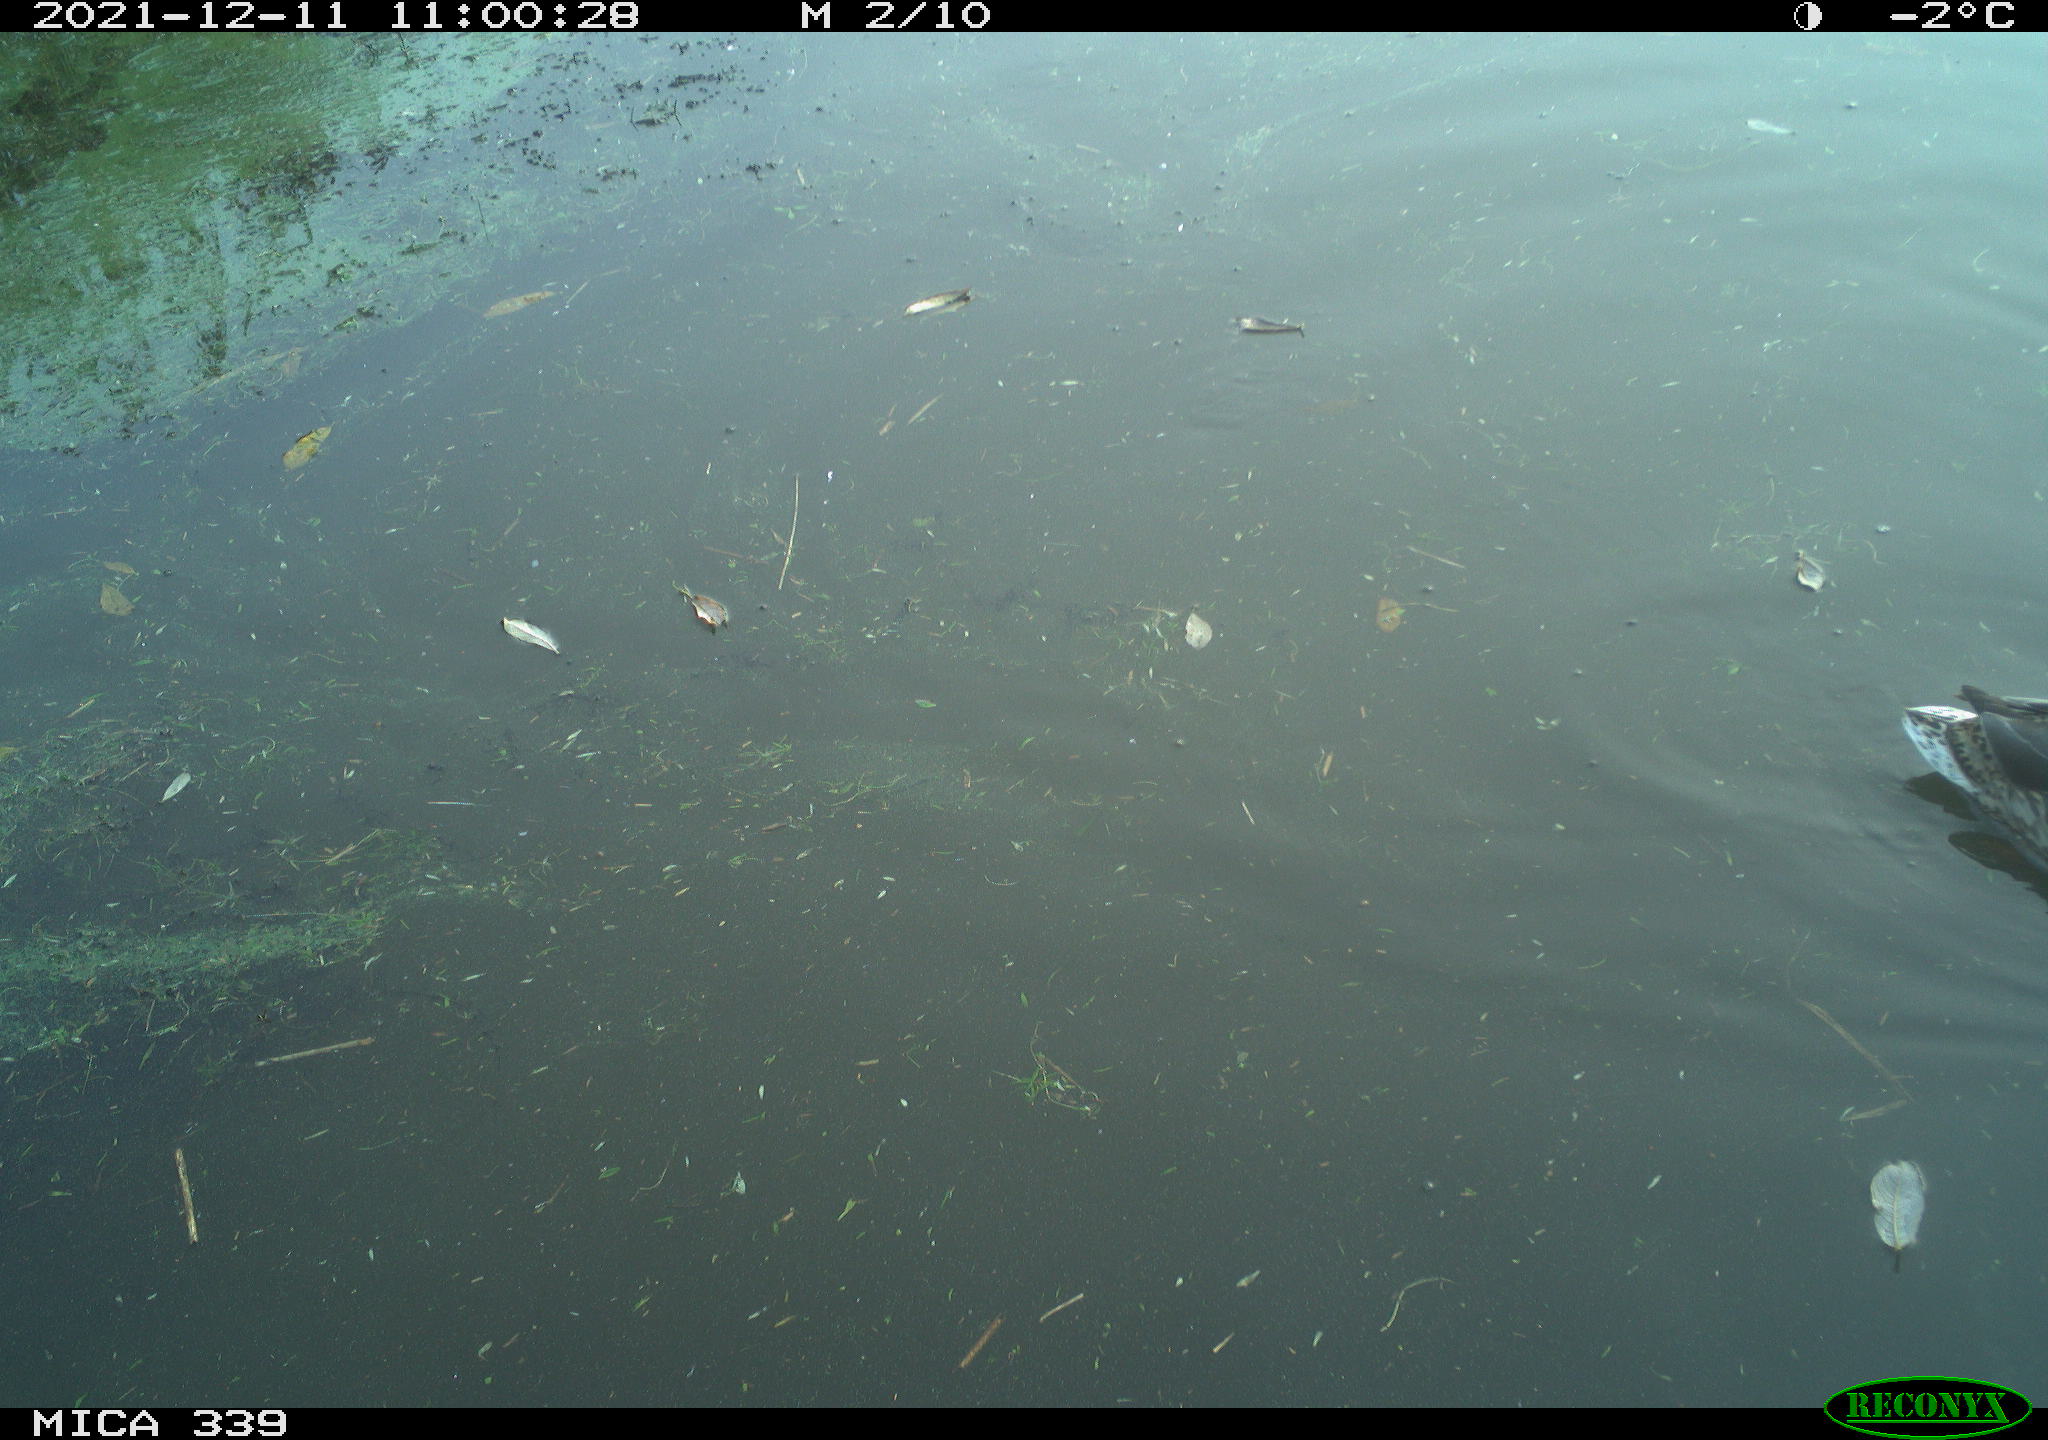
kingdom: Animalia
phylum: Chordata
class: Aves
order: Anseriformes
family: Anatidae
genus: Anas
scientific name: Anas platyrhynchos
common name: Mallard
